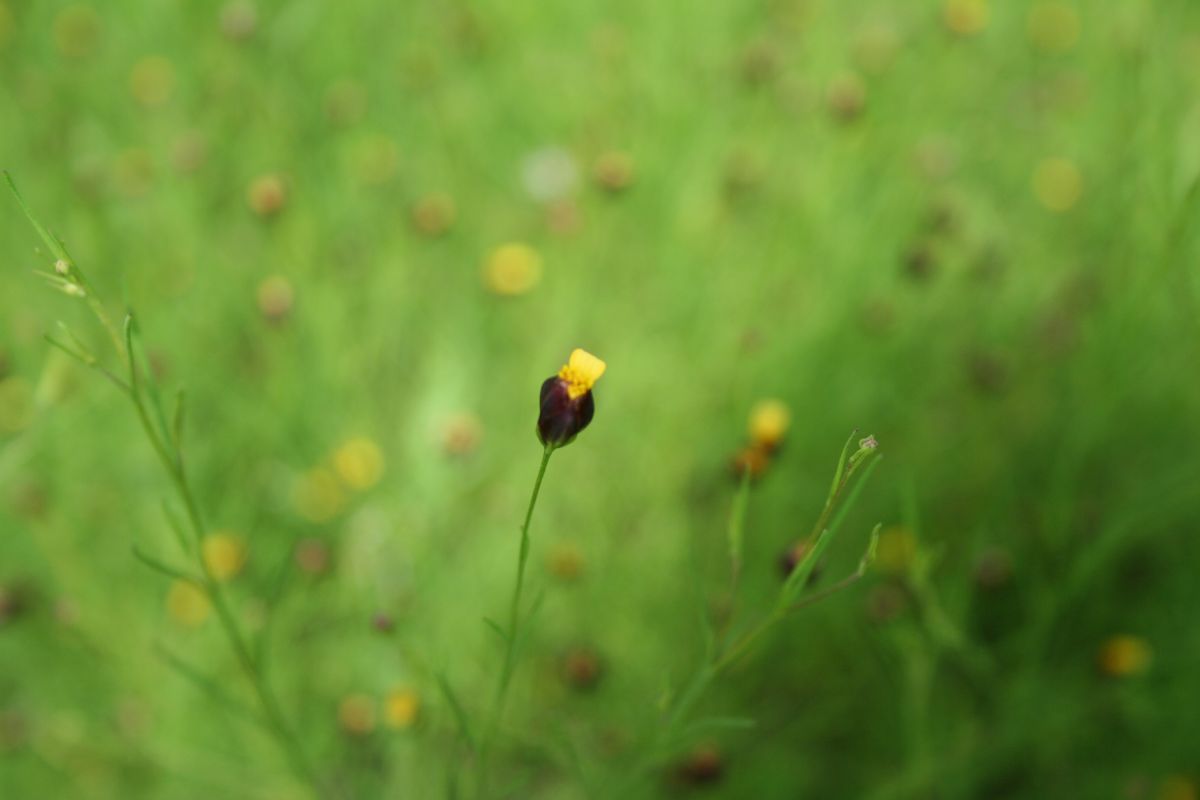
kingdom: Plantae
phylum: Tracheophyta
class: Magnoliopsida
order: Asterales
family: Asteraceae
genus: Schkuhria
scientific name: Schkuhria pinnata
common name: Dwarf marigold
